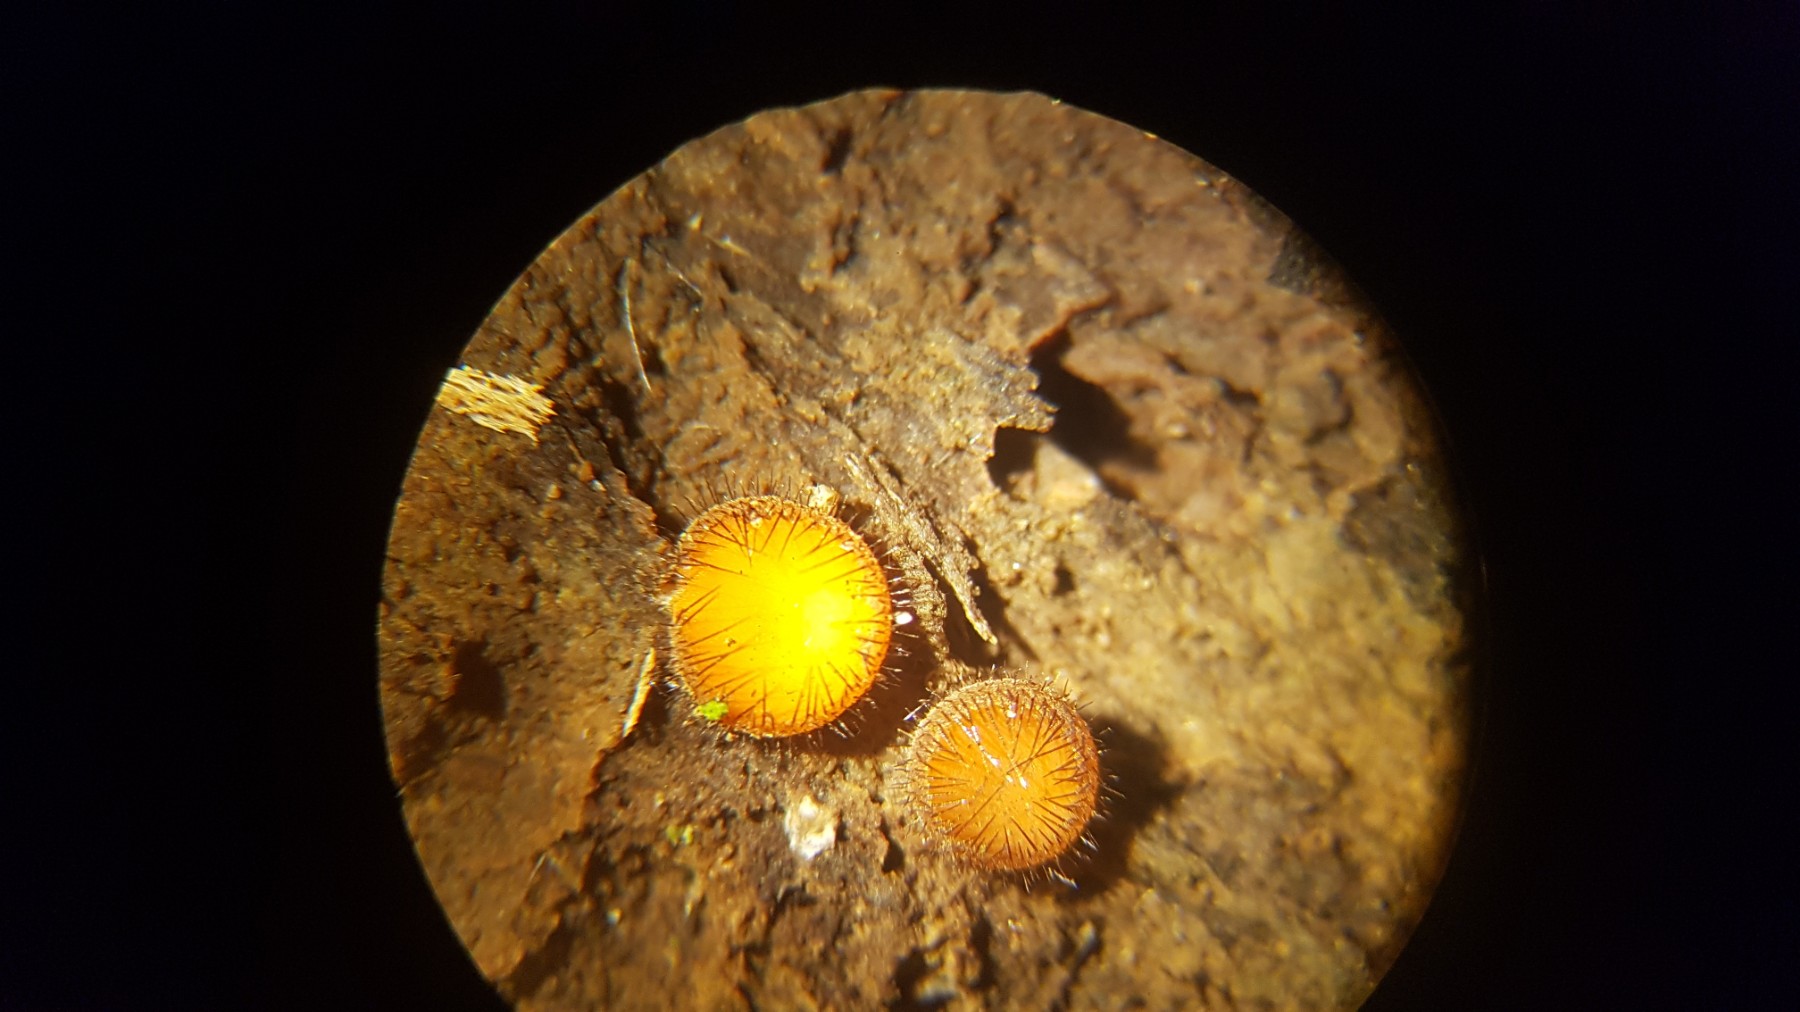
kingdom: Fungi
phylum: Ascomycota
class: Pezizomycetes
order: Pezizales
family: Pyronemataceae
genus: Scutellinia
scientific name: Scutellinia
